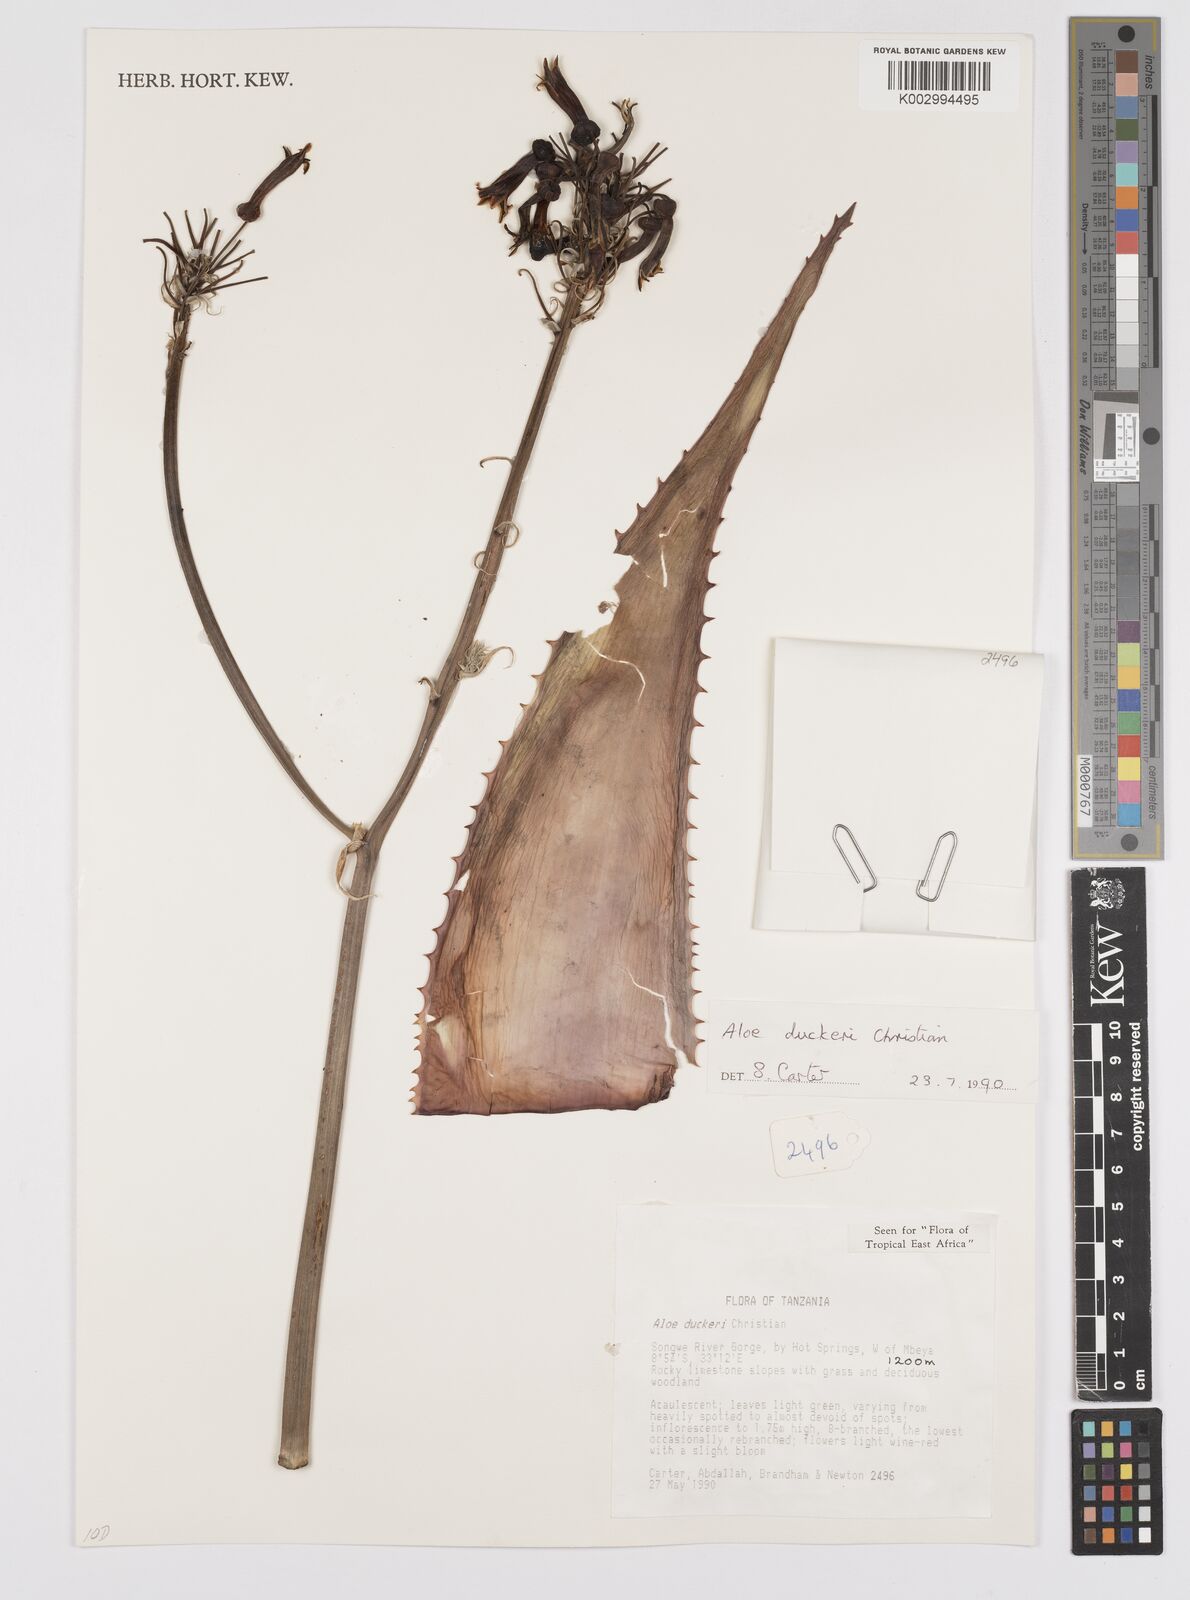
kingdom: Plantae
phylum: Tracheophyta
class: Liliopsida
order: Asparagales
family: Asphodelaceae
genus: Aloe
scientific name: Aloe duckeri
